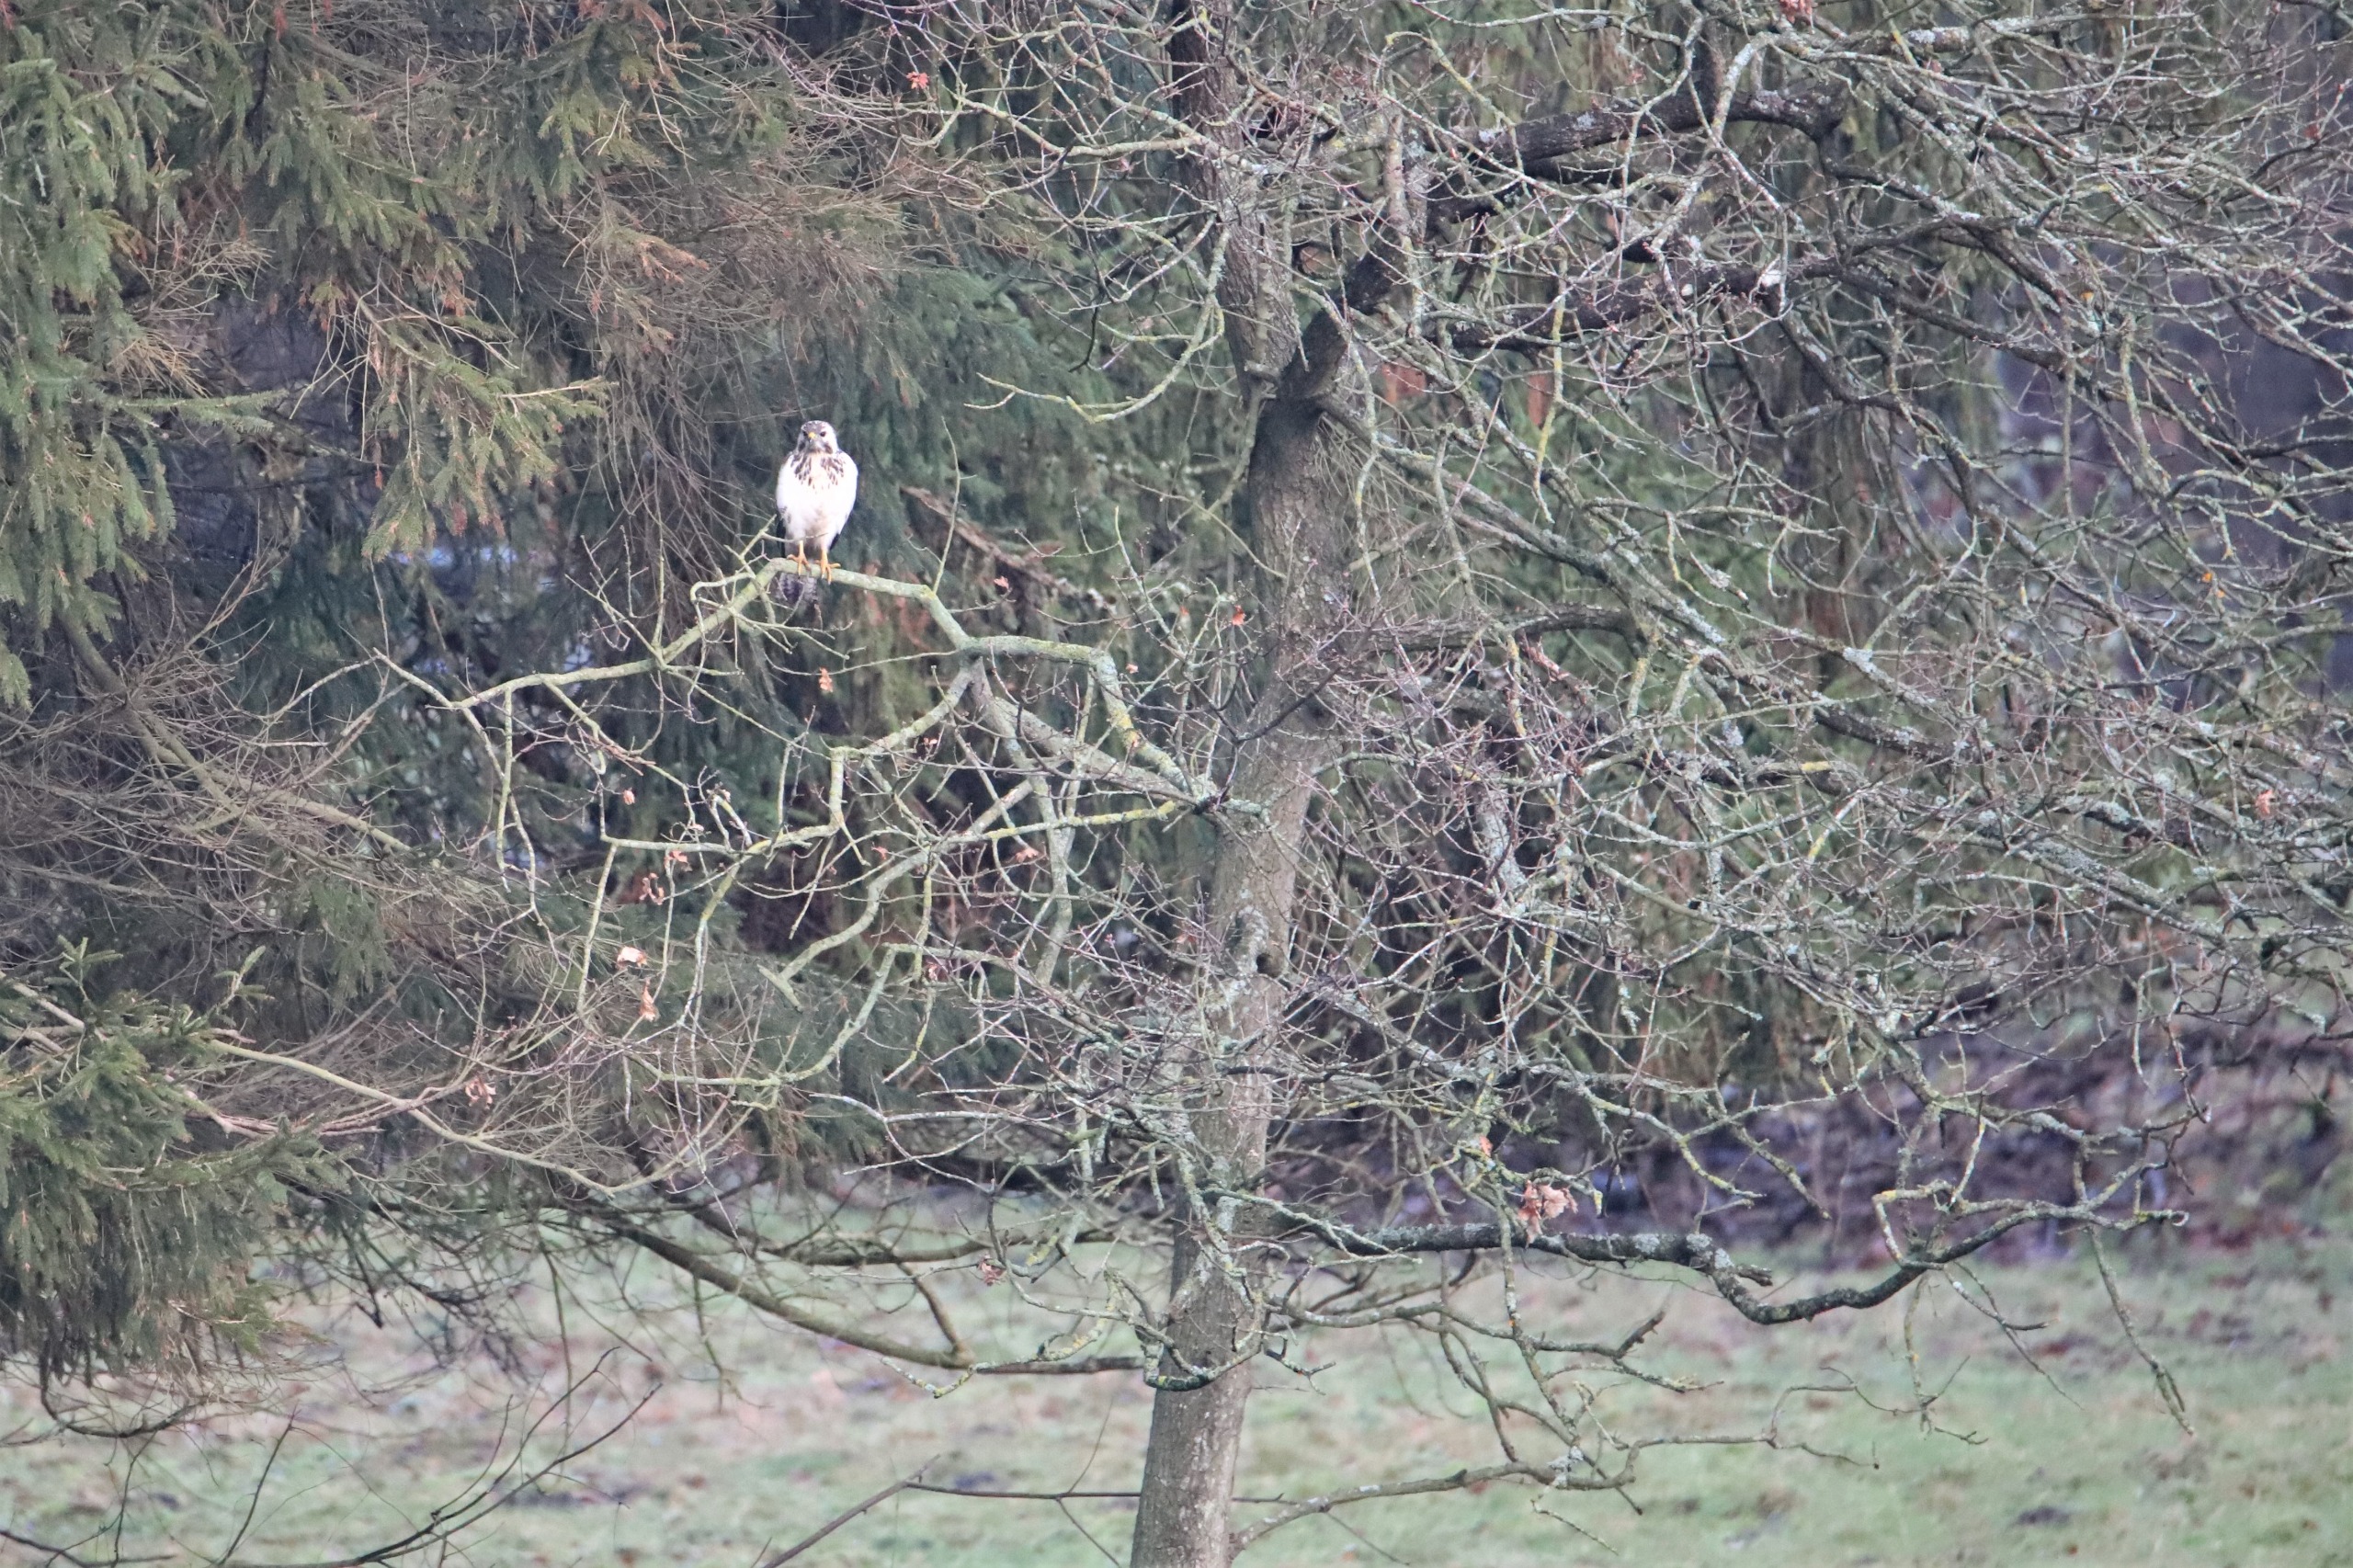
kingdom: Animalia
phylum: Chordata
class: Aves
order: Accipitriformes
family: Accipitridae
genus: Buteo
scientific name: Buteo buteo
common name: Musvåge
